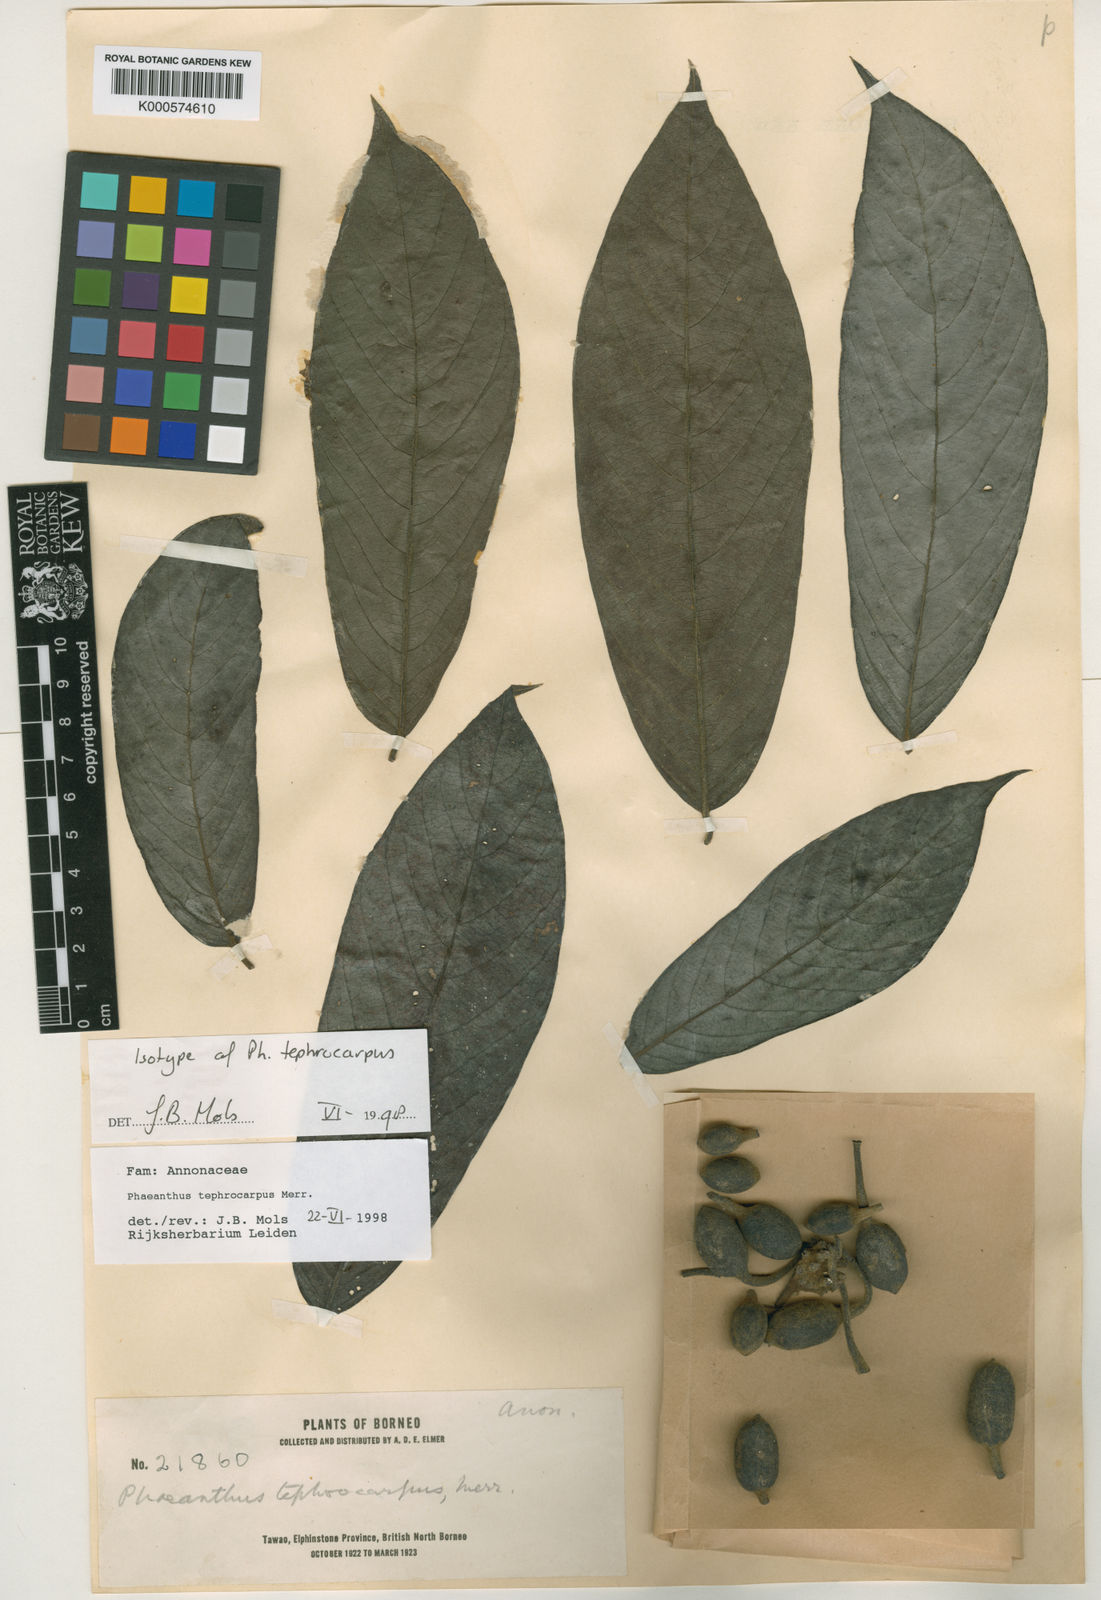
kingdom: Plantae
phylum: Tracheophyta
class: Magnoliopsida
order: Magnoliales
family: Annonaceae
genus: Phaeanthus
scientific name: Phaeanthus tephrocarpus
